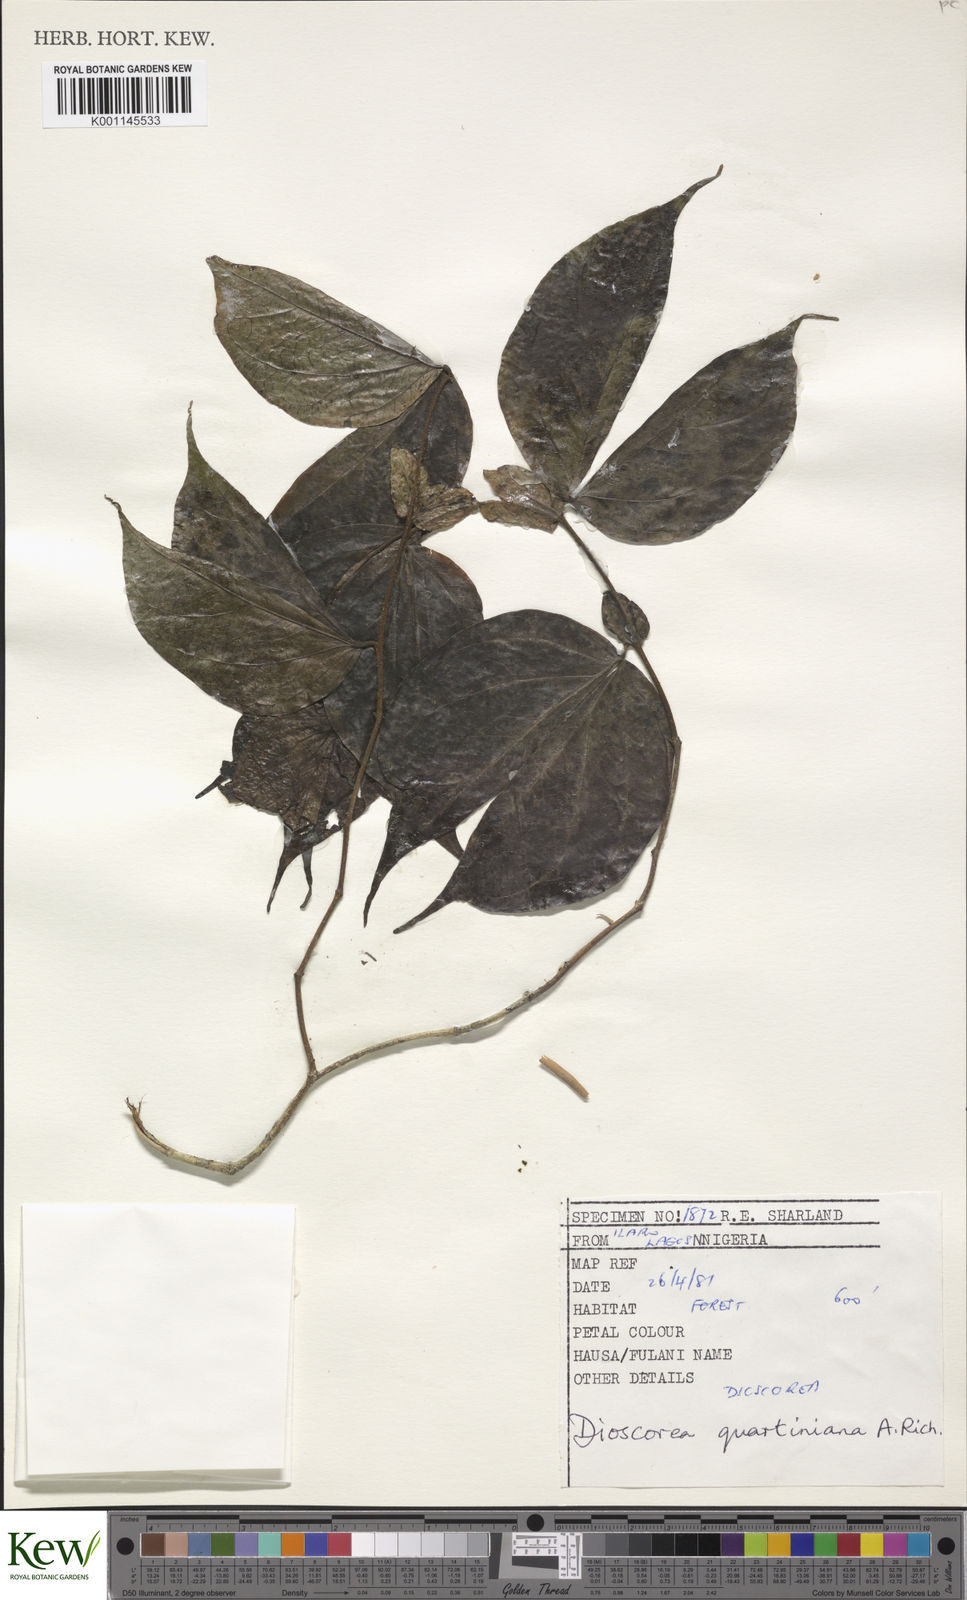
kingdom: Plantae
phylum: Tracheophyta
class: Liliopsida
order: Dioscoreales
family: Dioscoreaceae
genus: Dioscorea
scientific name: Dioscorea quartiniana
